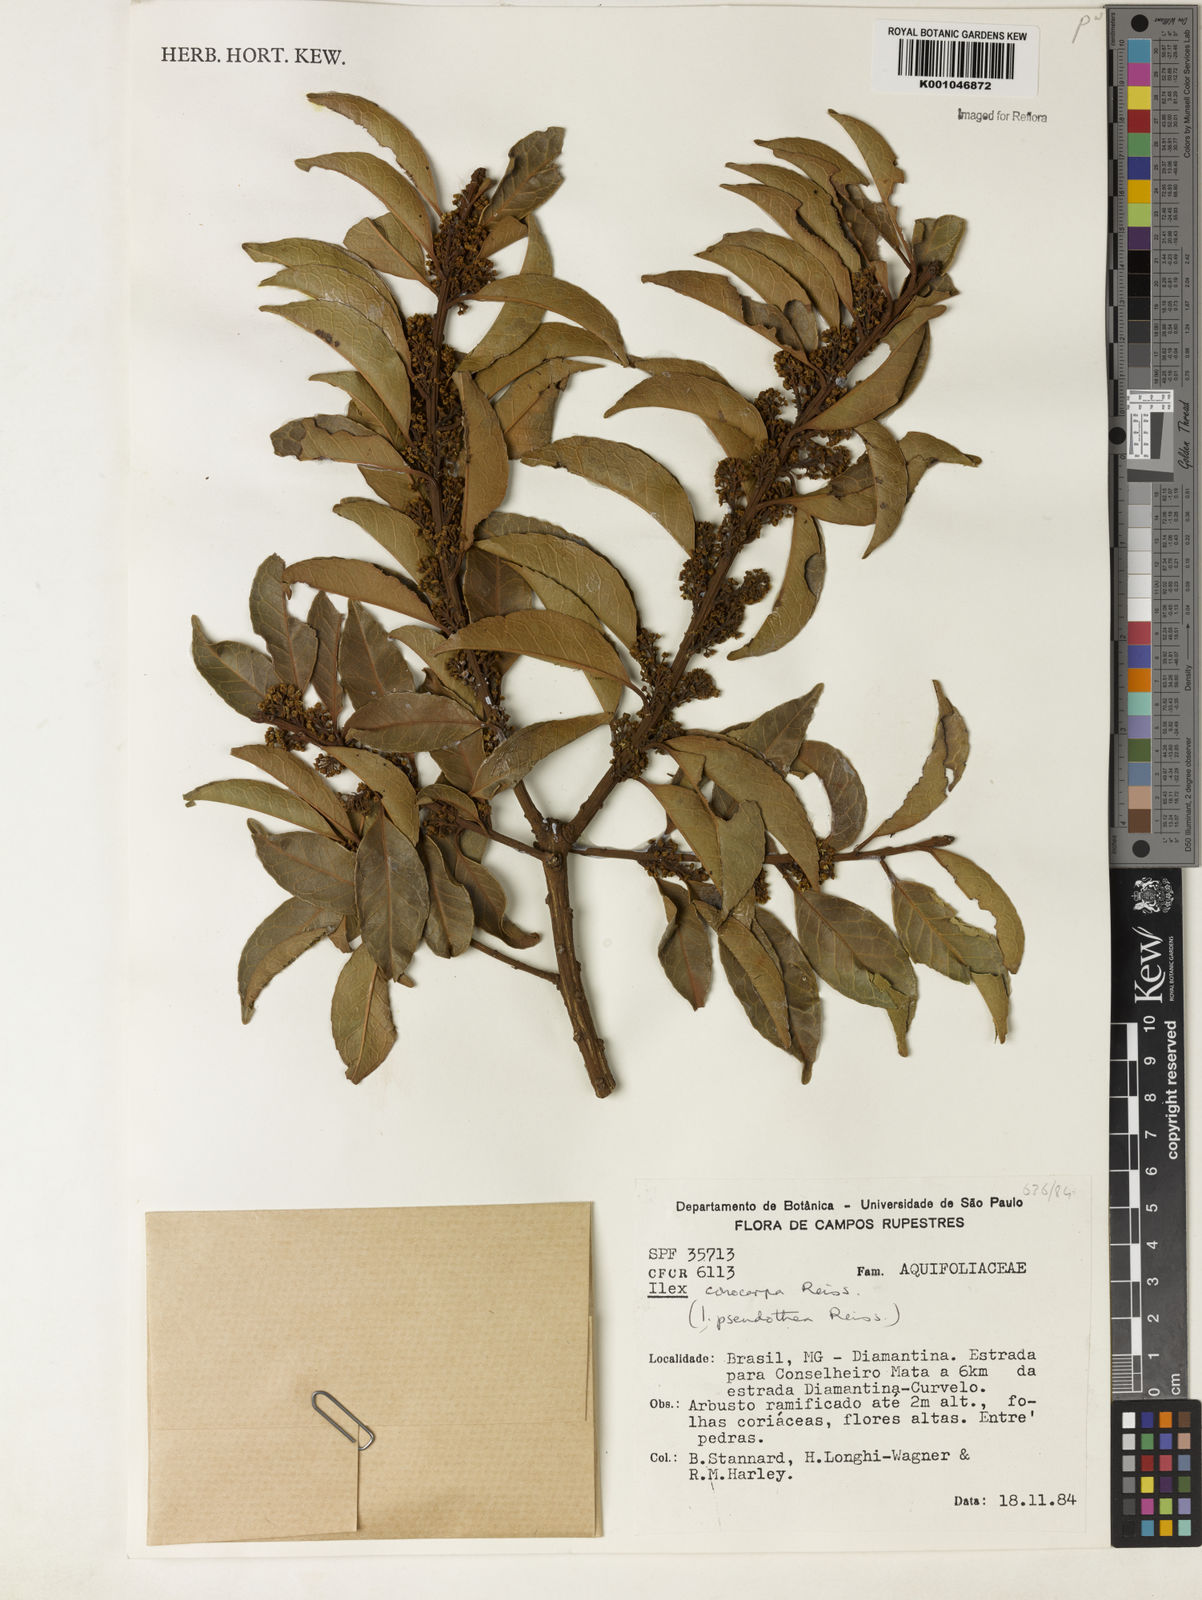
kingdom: Plantae
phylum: Tracheophyta
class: Magnoliopsida
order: Aquifoliales
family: Aquifoliaceae
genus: Ilex
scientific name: Ilex conocarpa
